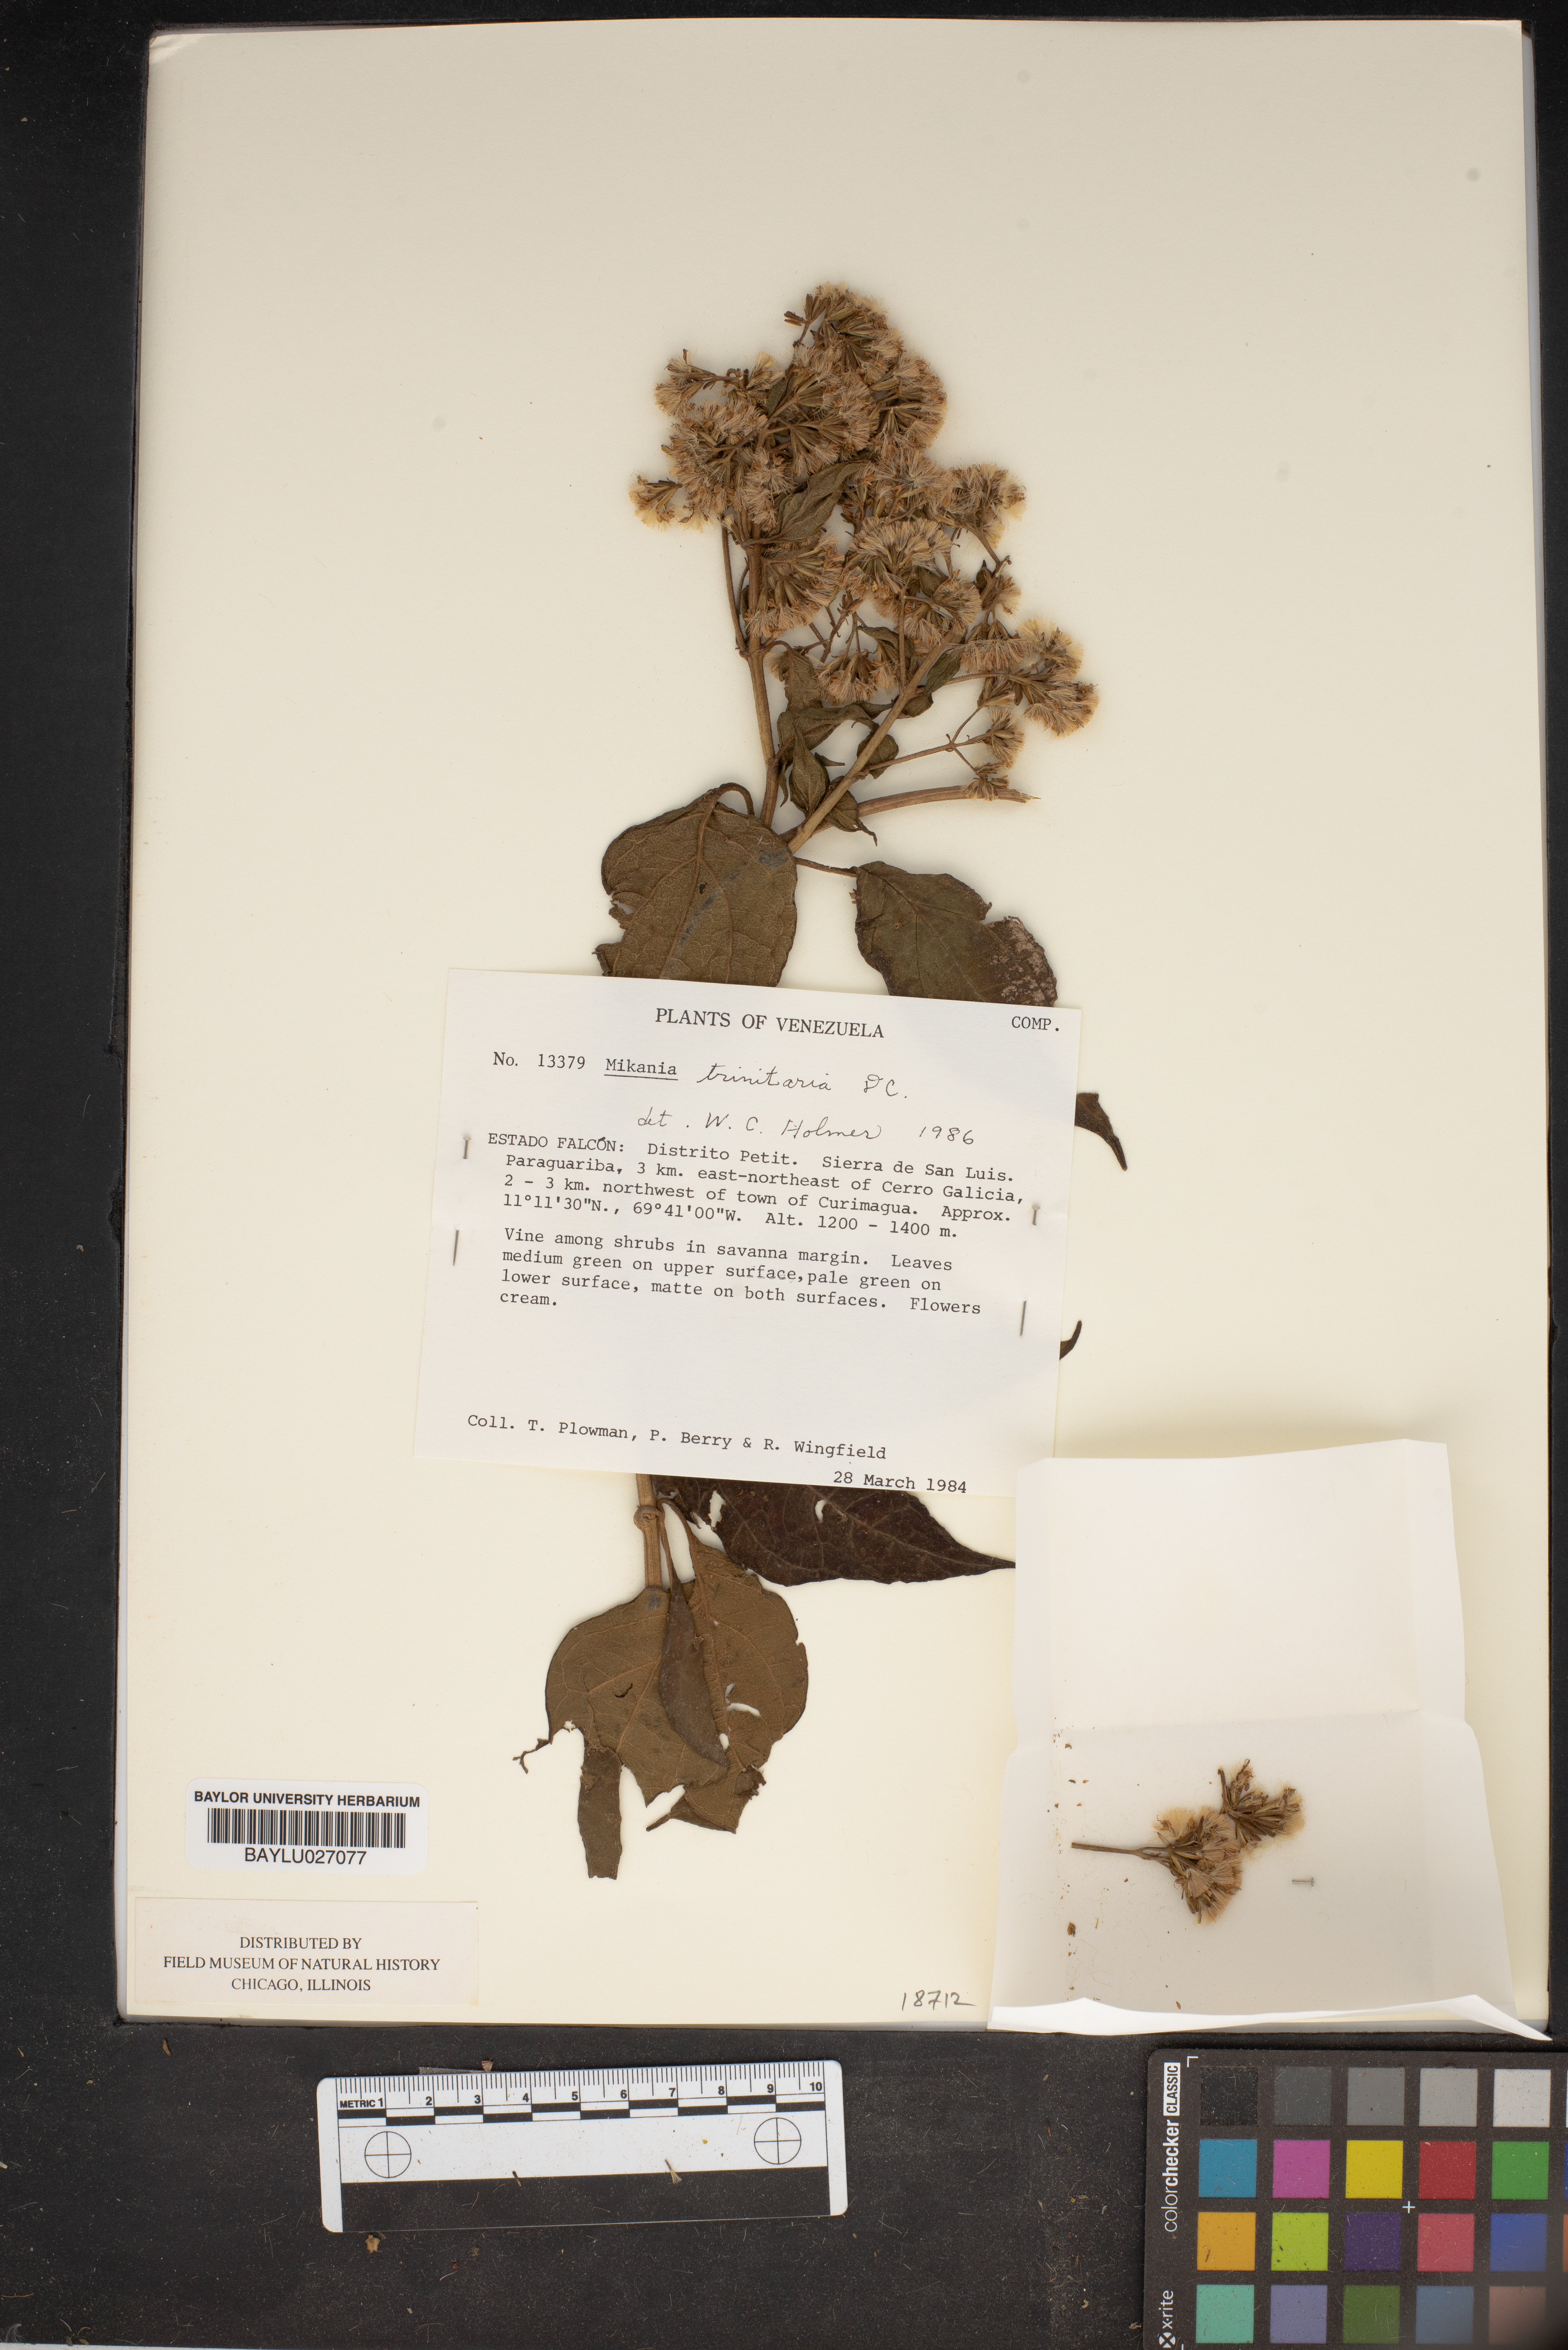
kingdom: Plantae
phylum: Tracheophyta
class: Magnoliopsida
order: Asterales
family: Asteraceae
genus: Mikania
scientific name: Mikania trinitaria
